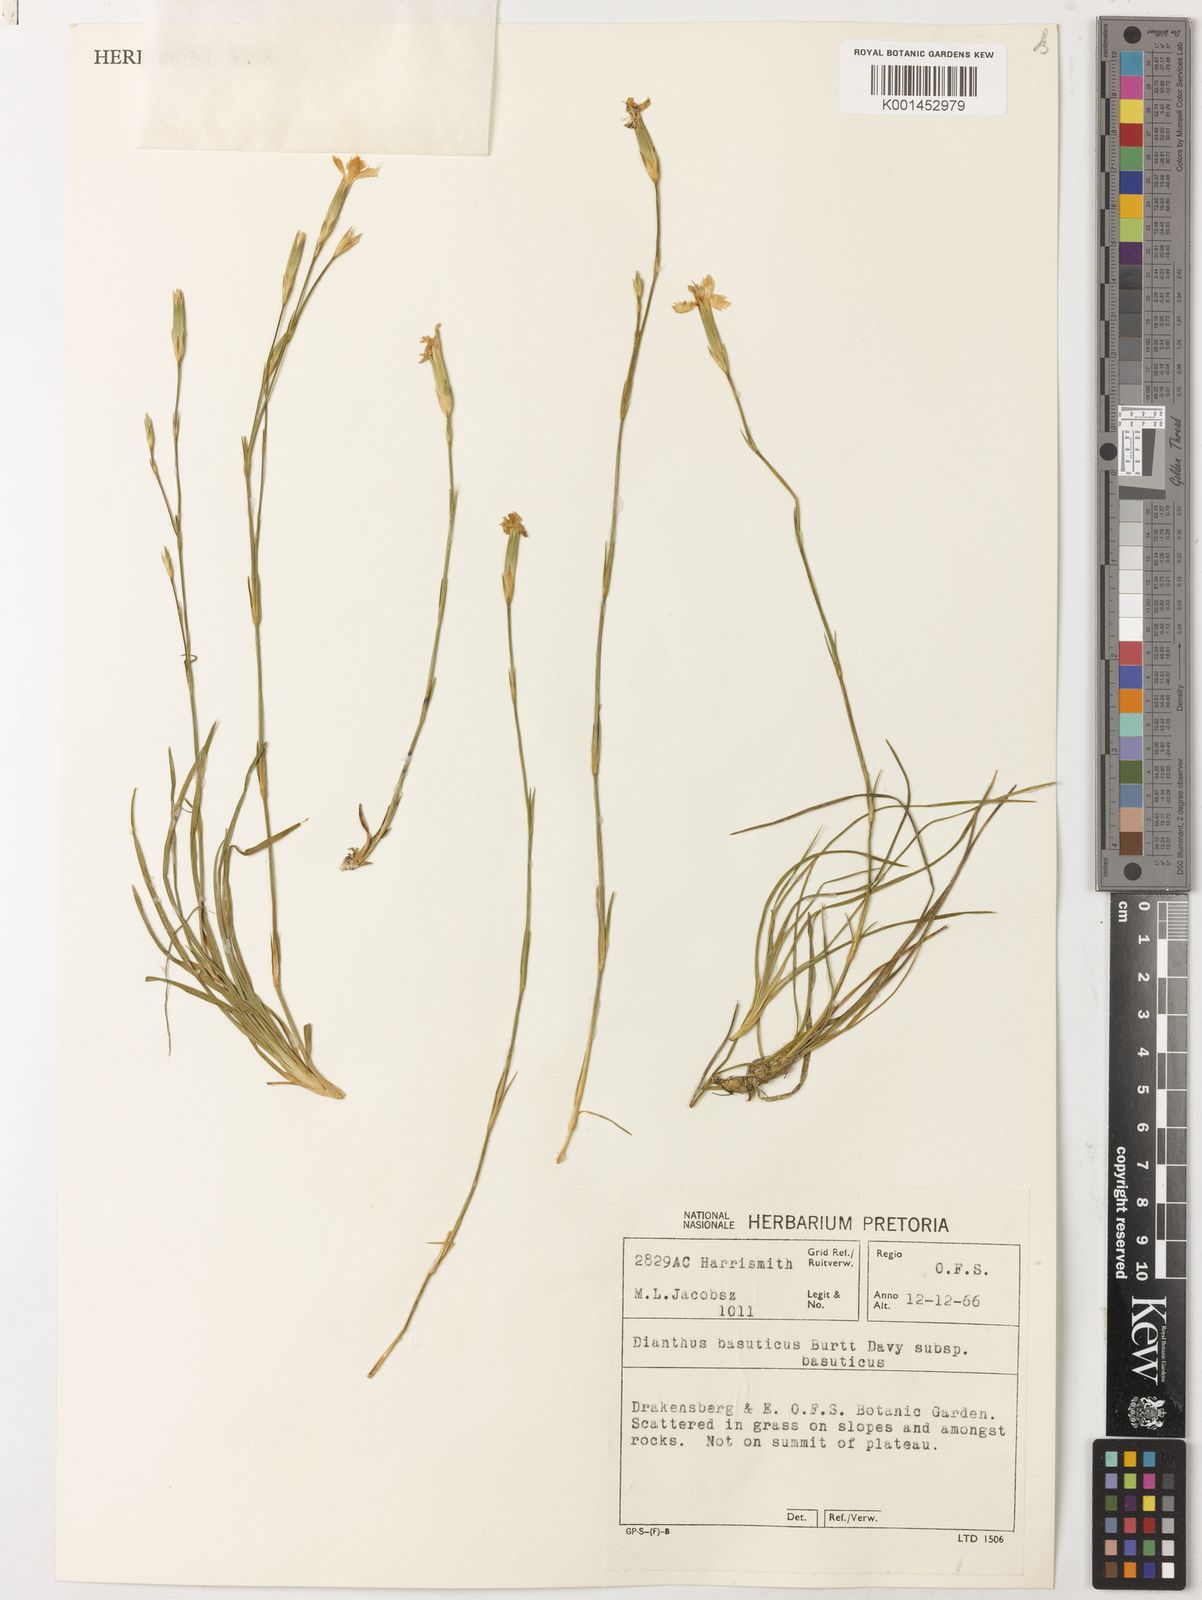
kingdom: Plantae
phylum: Tracheophyta
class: Magnoliopsida
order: Caryophyllales
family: Caryophyllaceae
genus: Dianthus
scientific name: Dianthus basuticus
